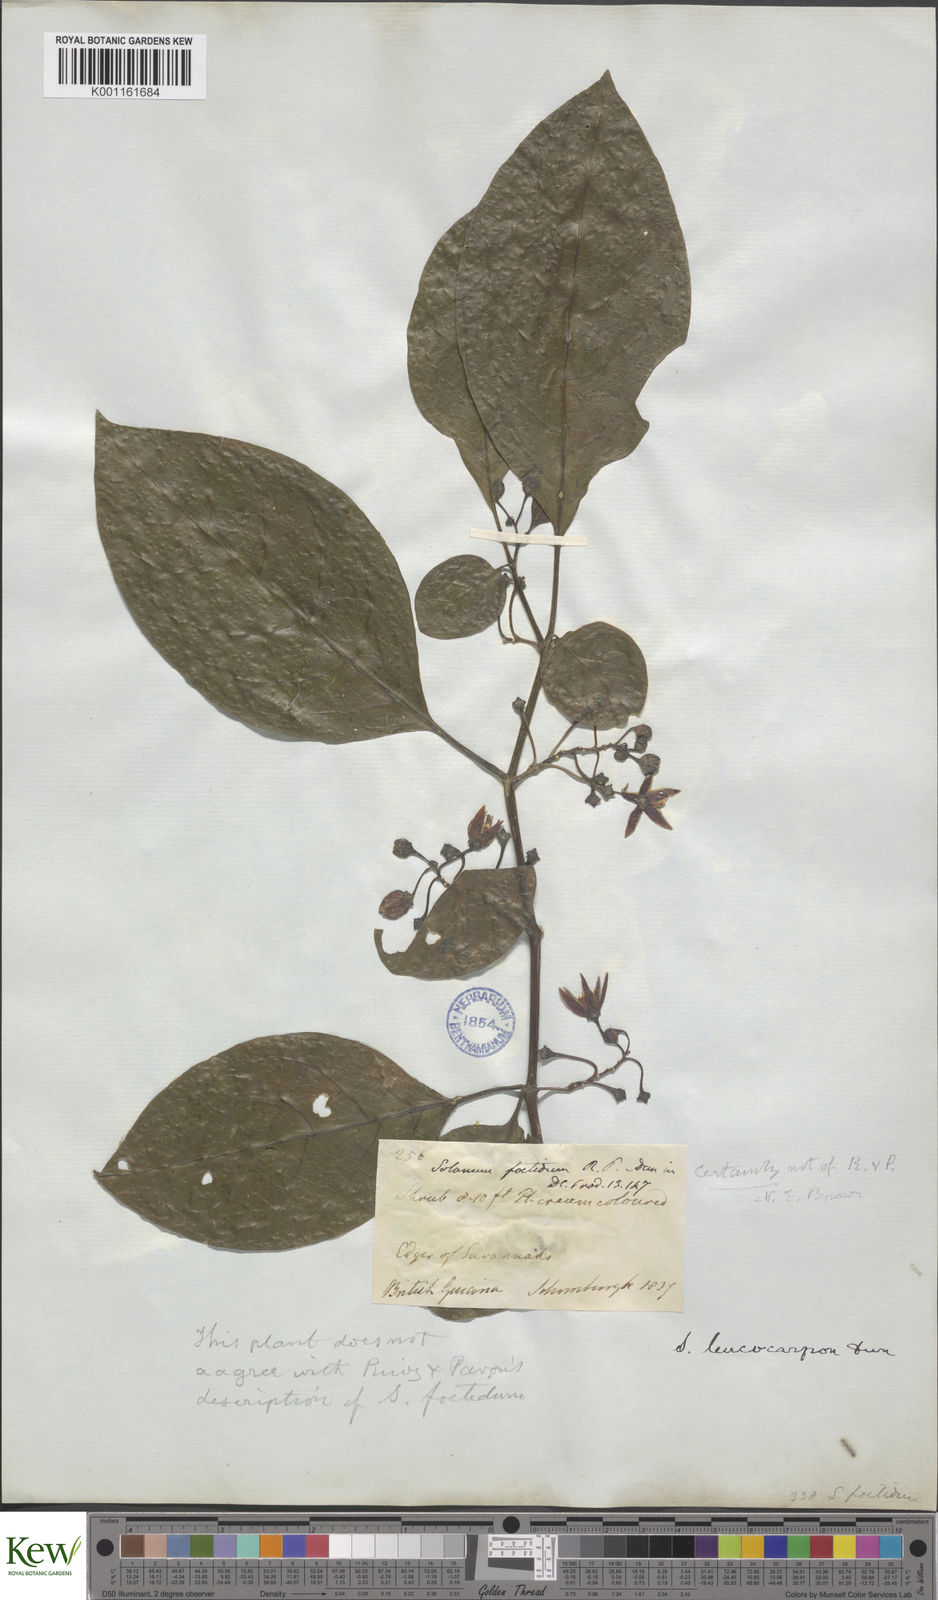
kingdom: Plantae
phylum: Tracheophyta
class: Magnoliopsida
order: Solanales
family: Solanaceae
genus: Solanum
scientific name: Solanum leucocarpon
